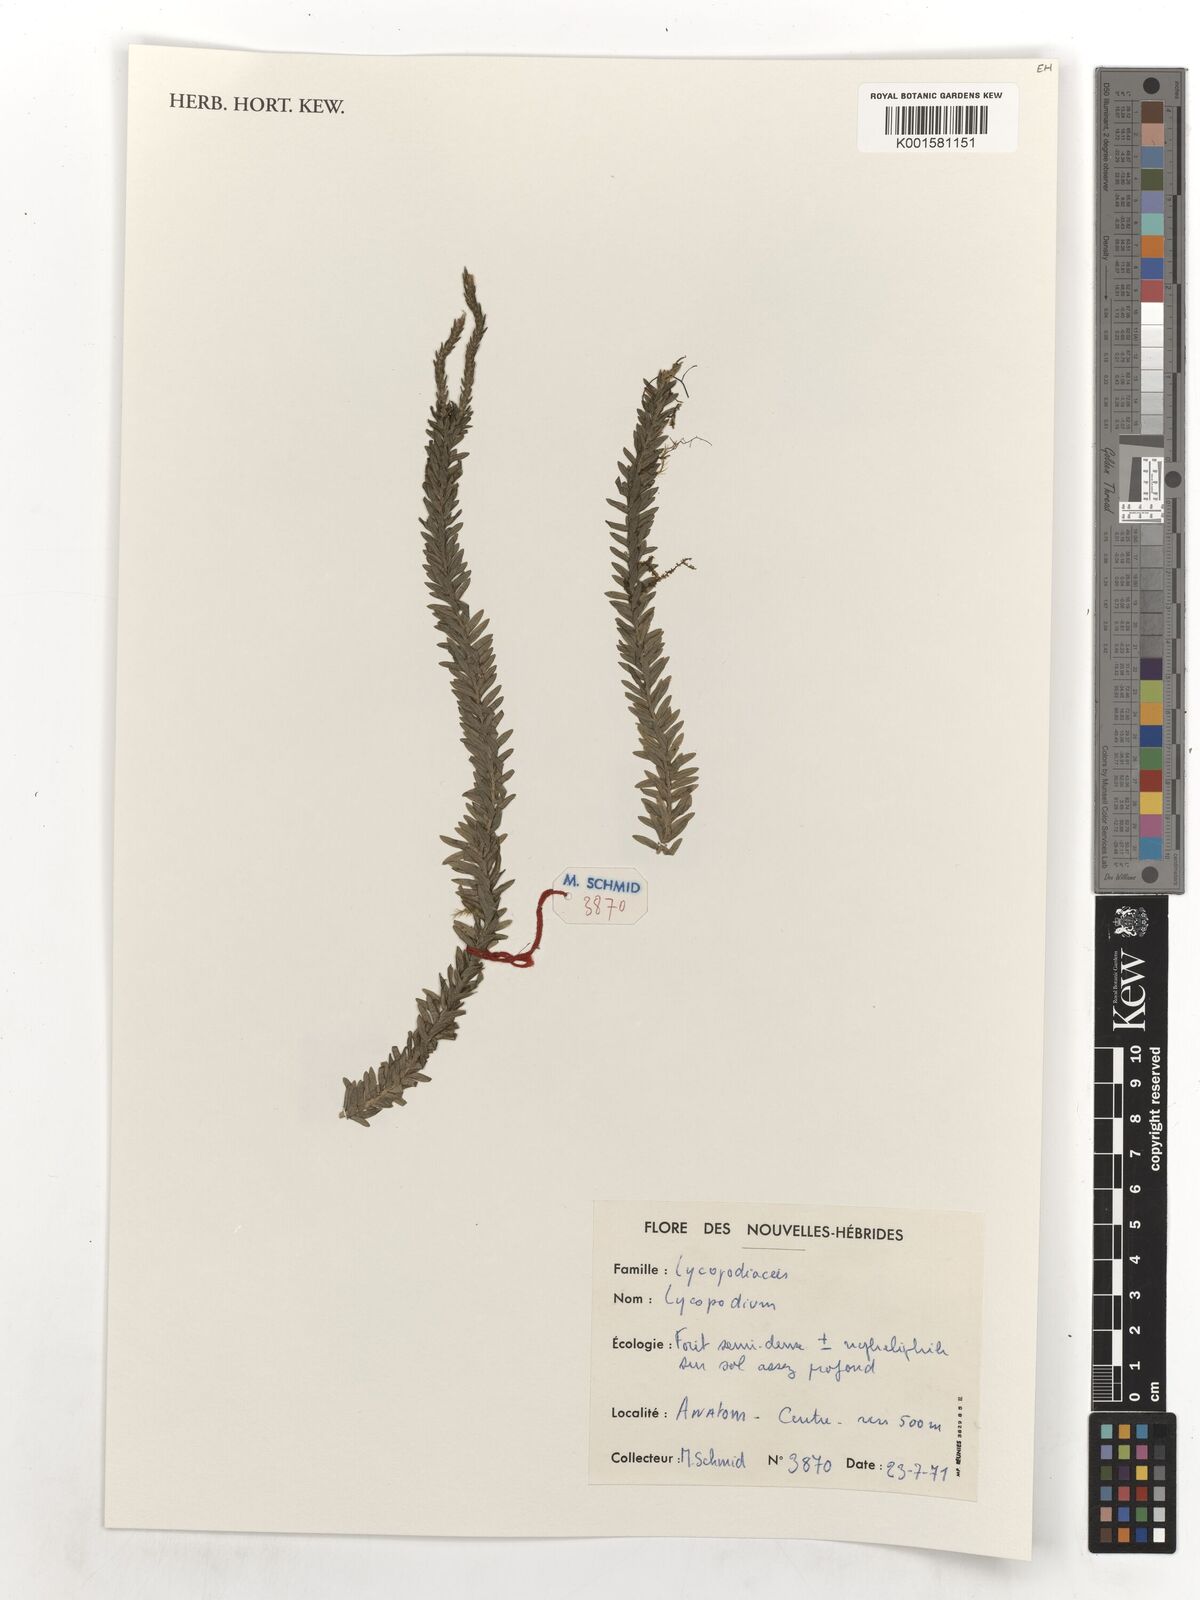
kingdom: Plantae
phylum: Tracheophyta
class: Lycopodiopsida
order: Lycopodiales
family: Lycopodiaceae
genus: Lycopodium
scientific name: Lycopodium
